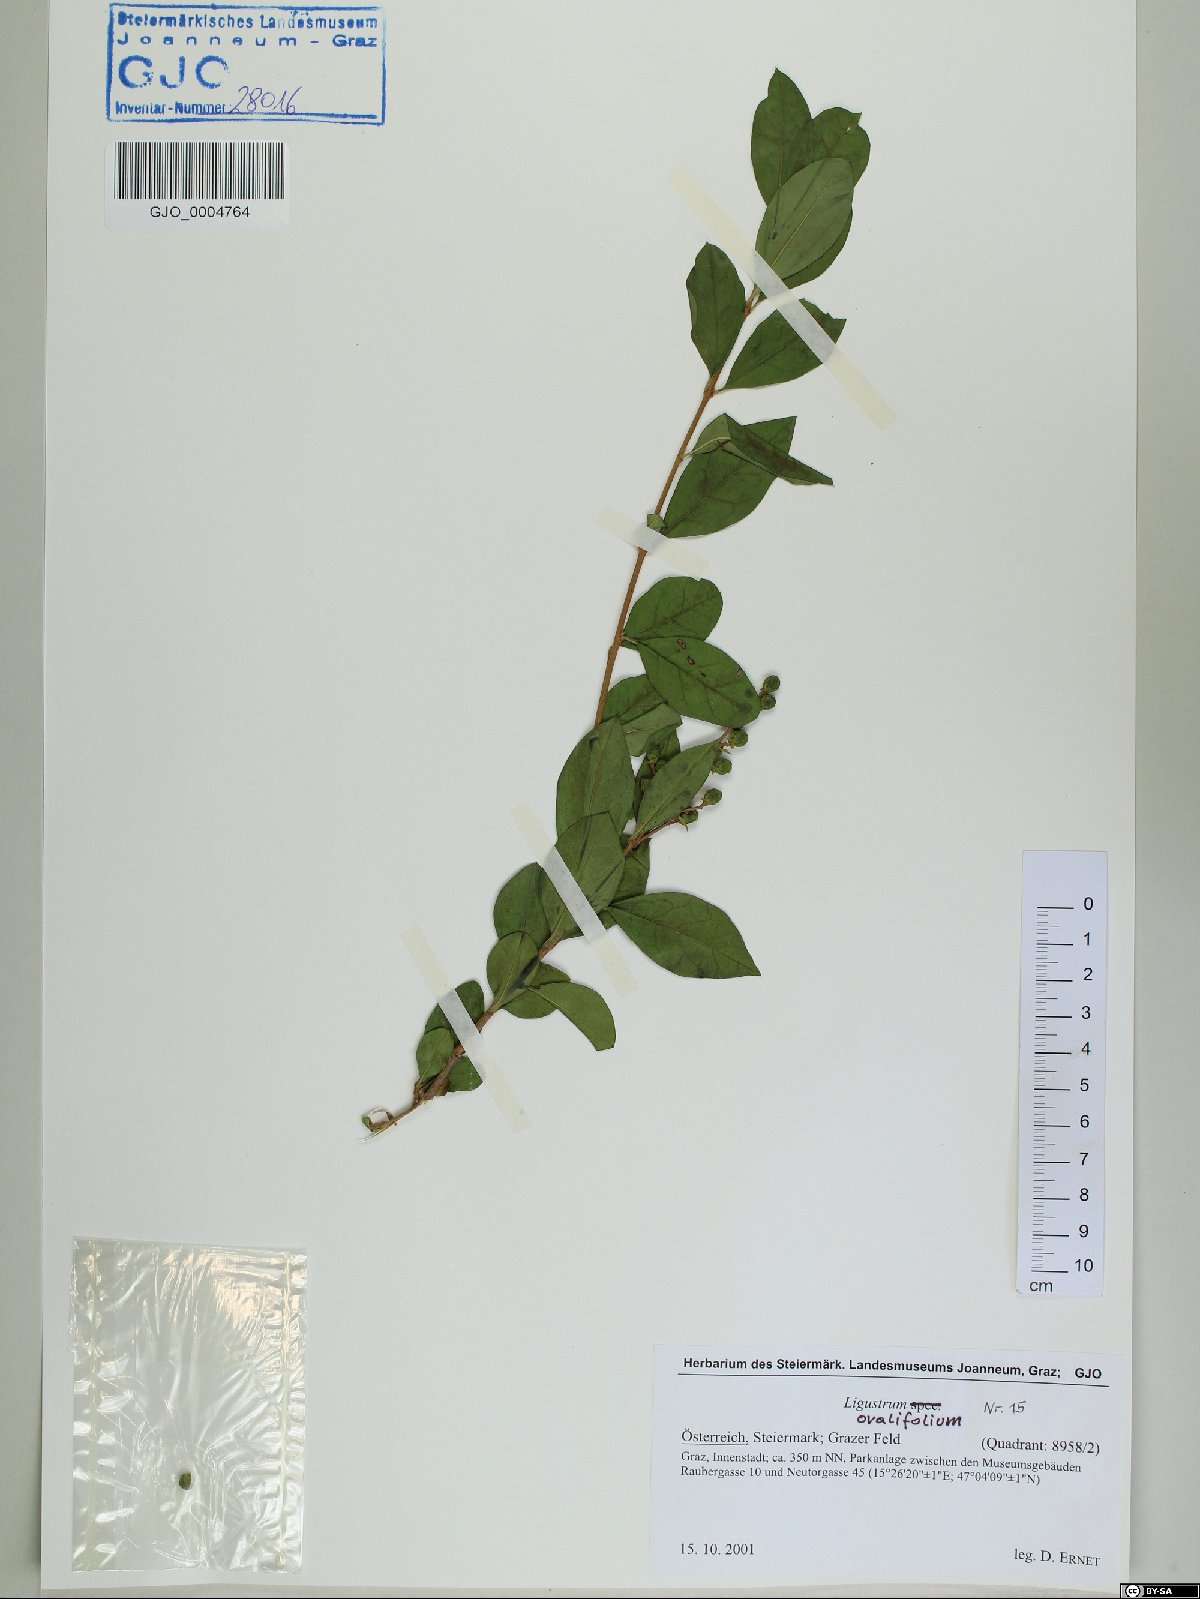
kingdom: Plantae
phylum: Tracheophyta
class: Magnoliopsida
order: Lamiales
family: Oleaceae
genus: Ligustrum
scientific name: Ligustrum ovalifolium
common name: California privet
